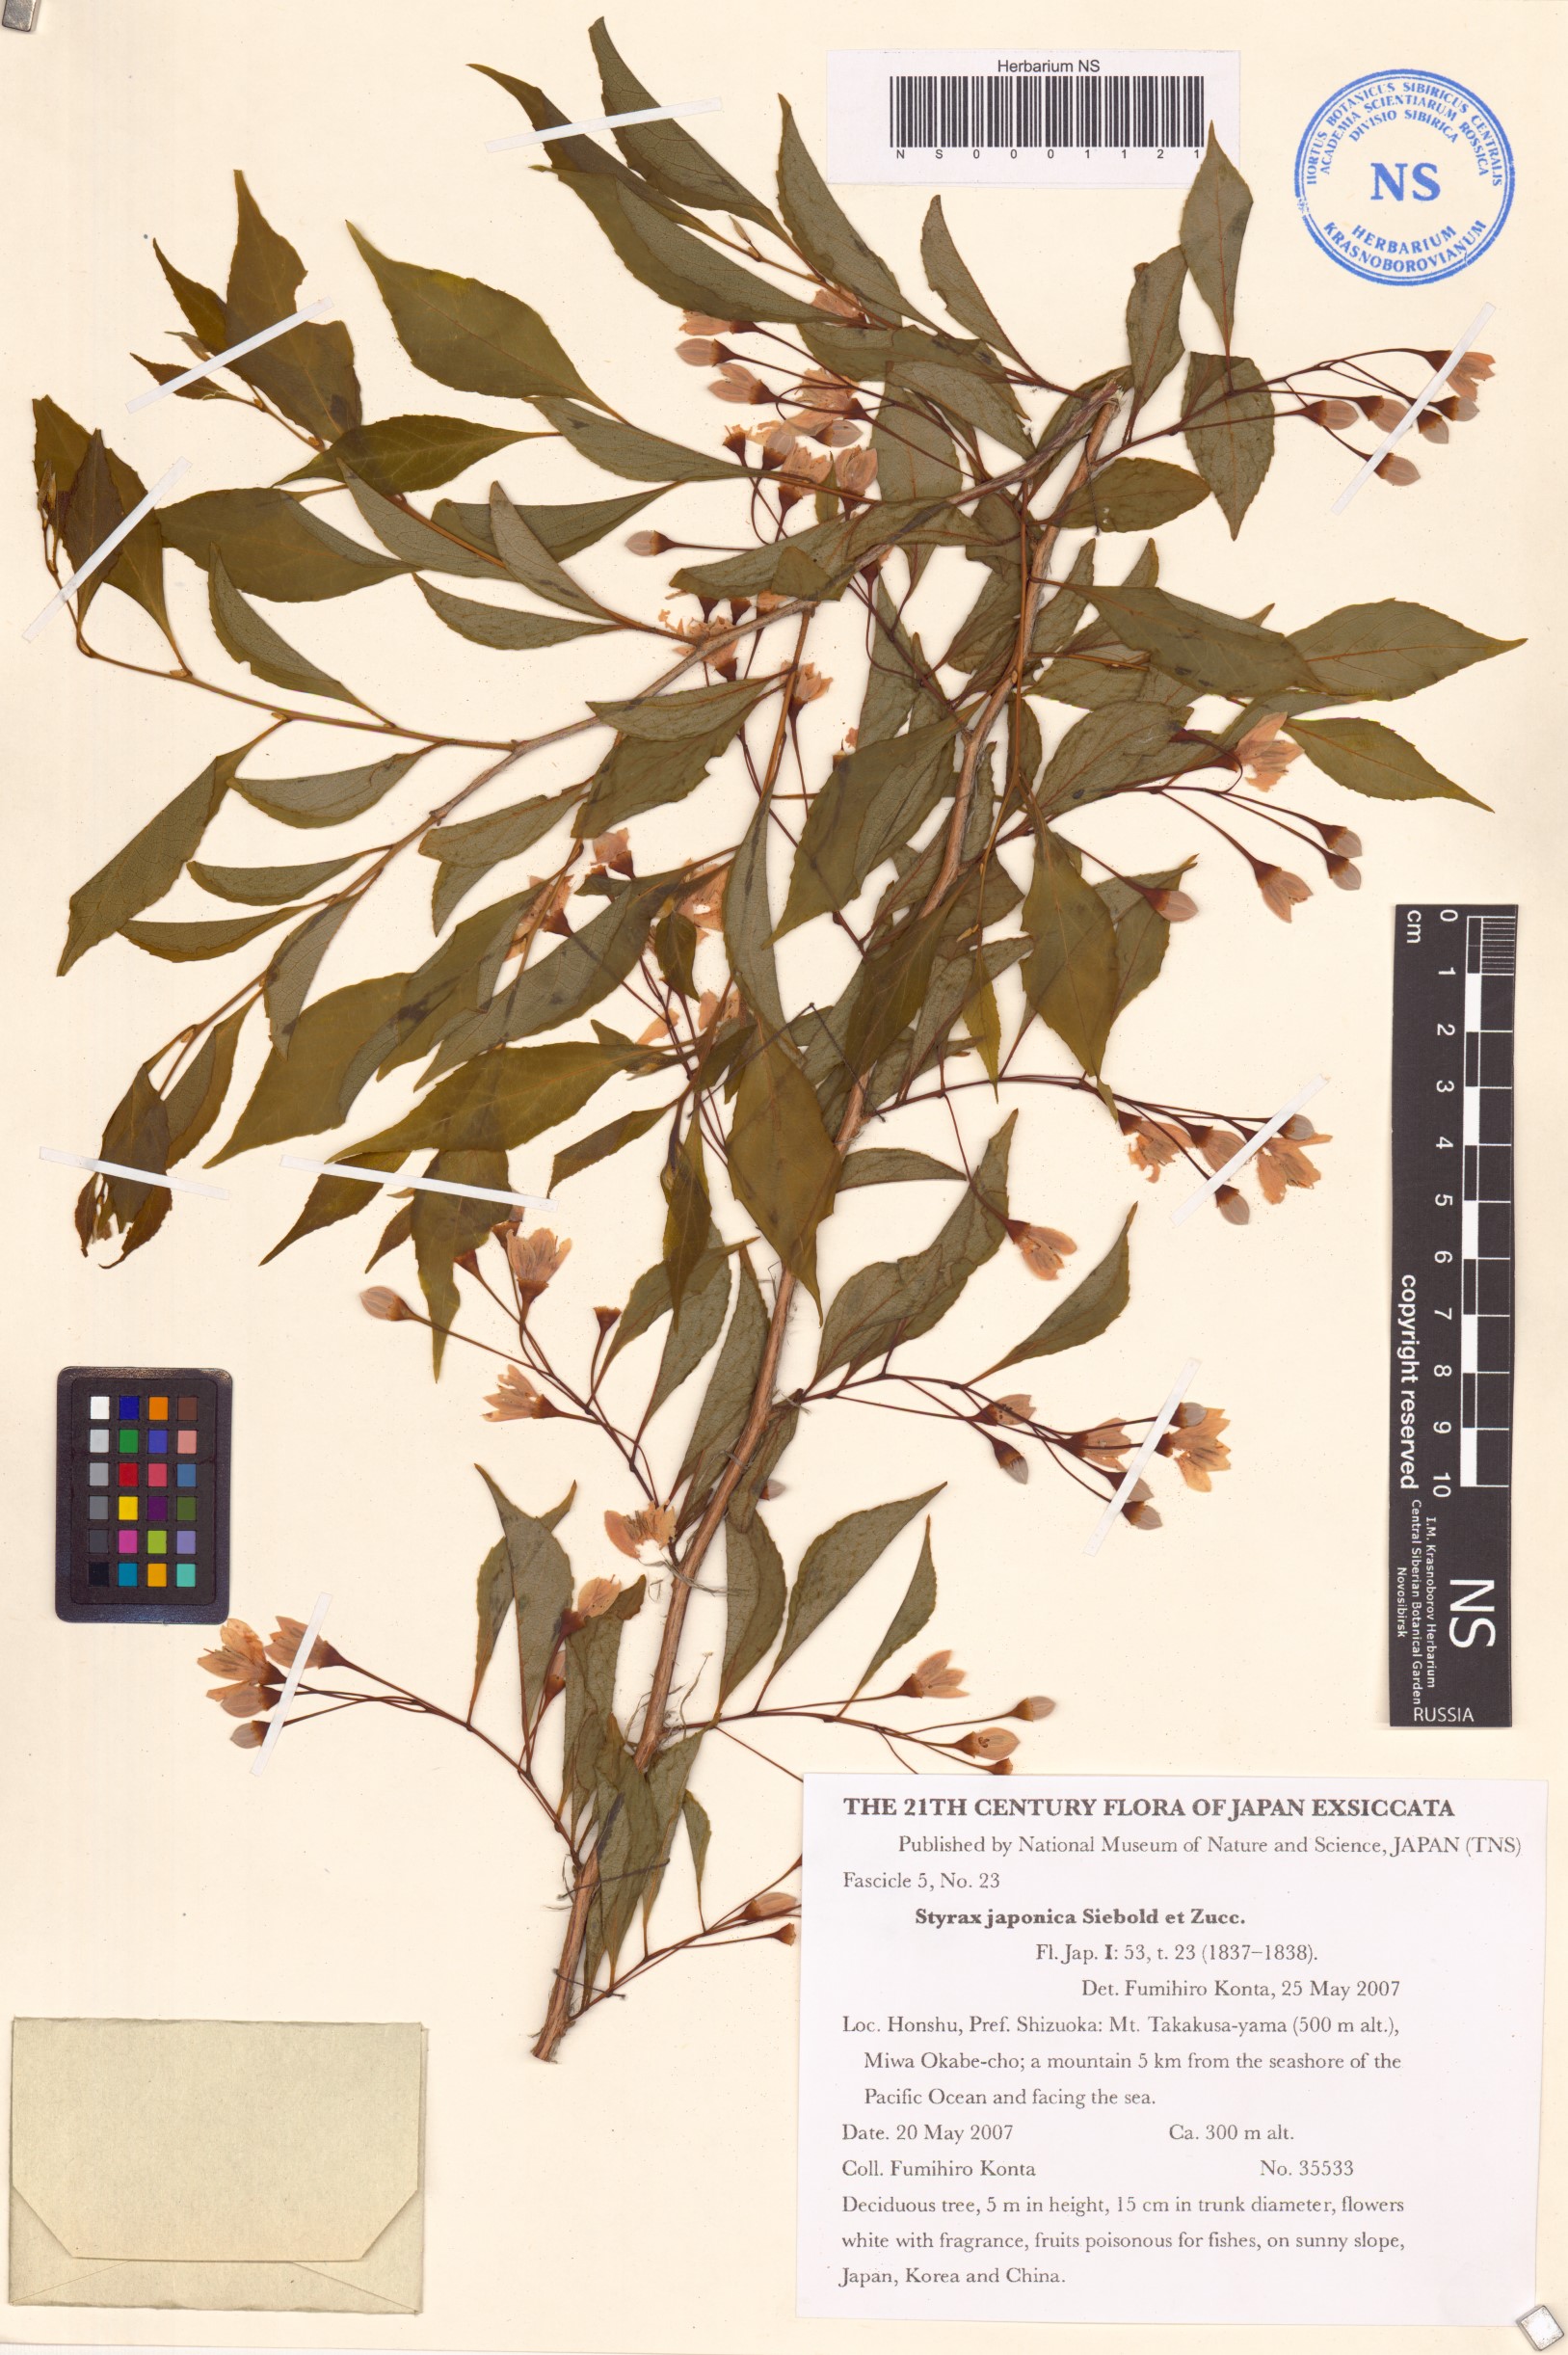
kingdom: Plantae
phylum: Tracheophyta
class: Magnoliopsida
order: Ericales
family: Styracaceae
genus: Styrax
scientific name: Styrax japonicus
